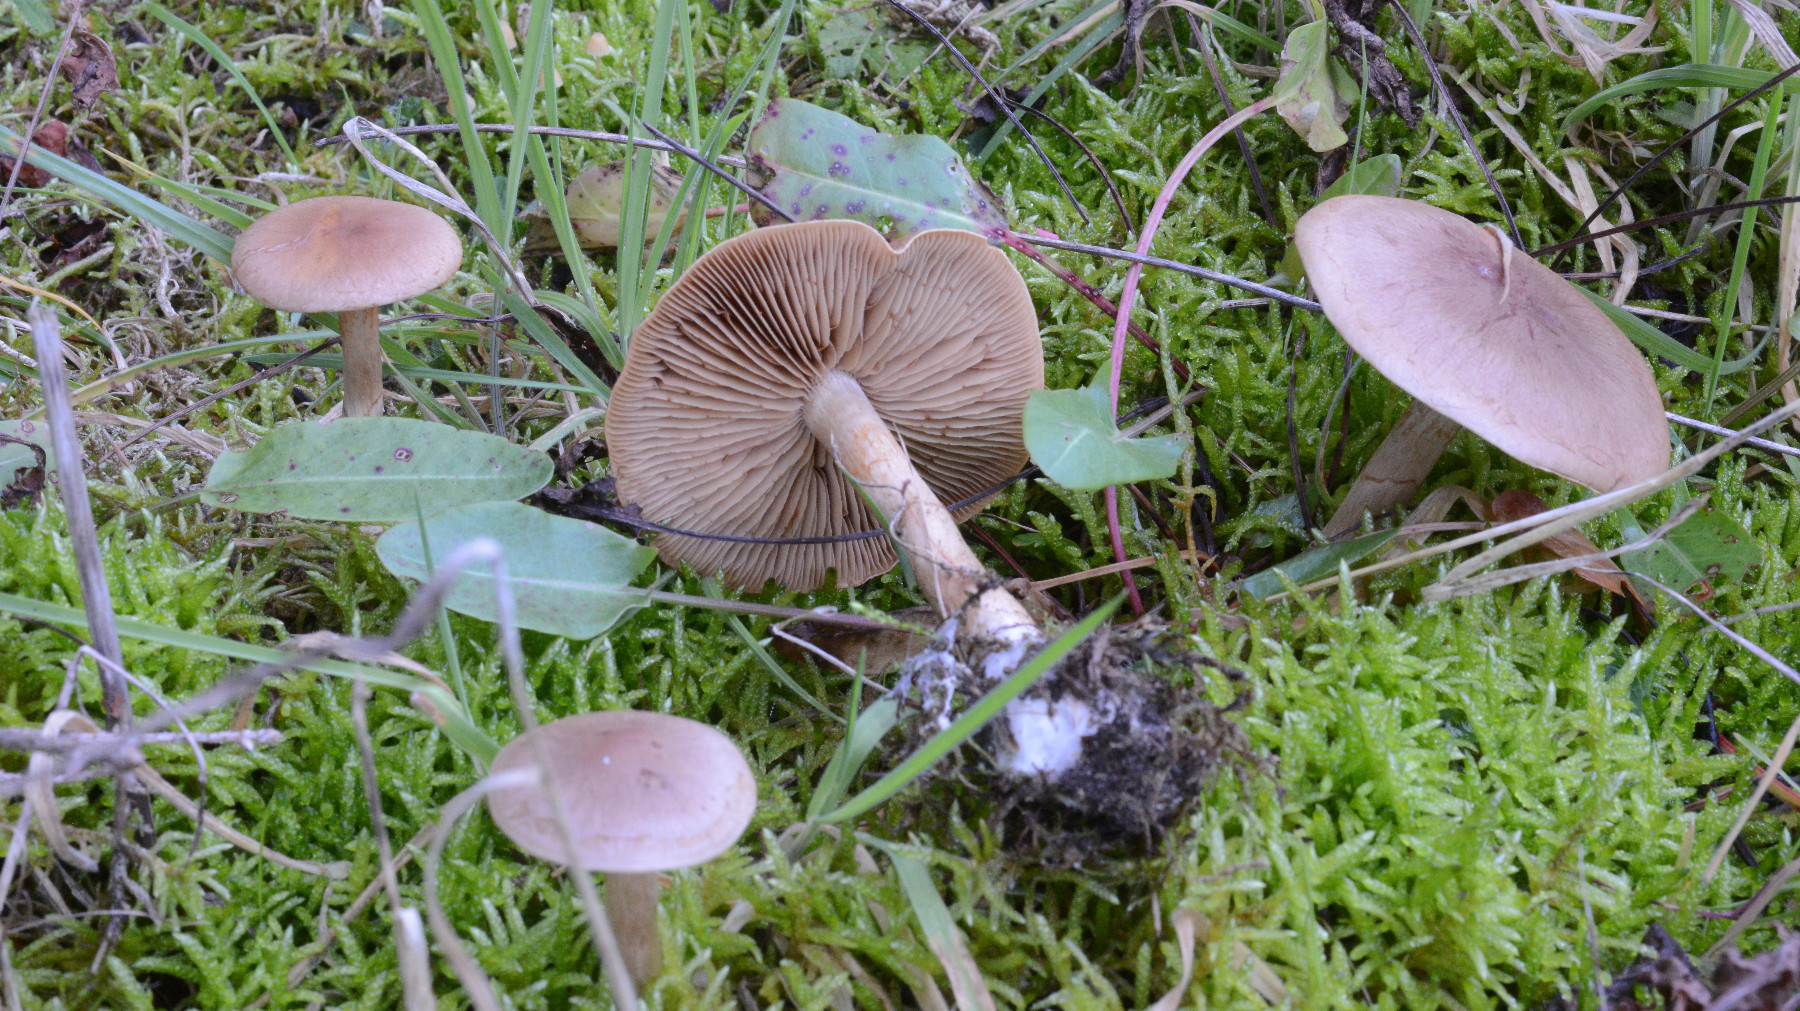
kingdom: Fungi
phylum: Basidiomycota
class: Agaricomycetes
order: Agaricales
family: Cortinariaceae
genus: Cortinarius
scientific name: Cortinarius caninus
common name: gran-slørhat
